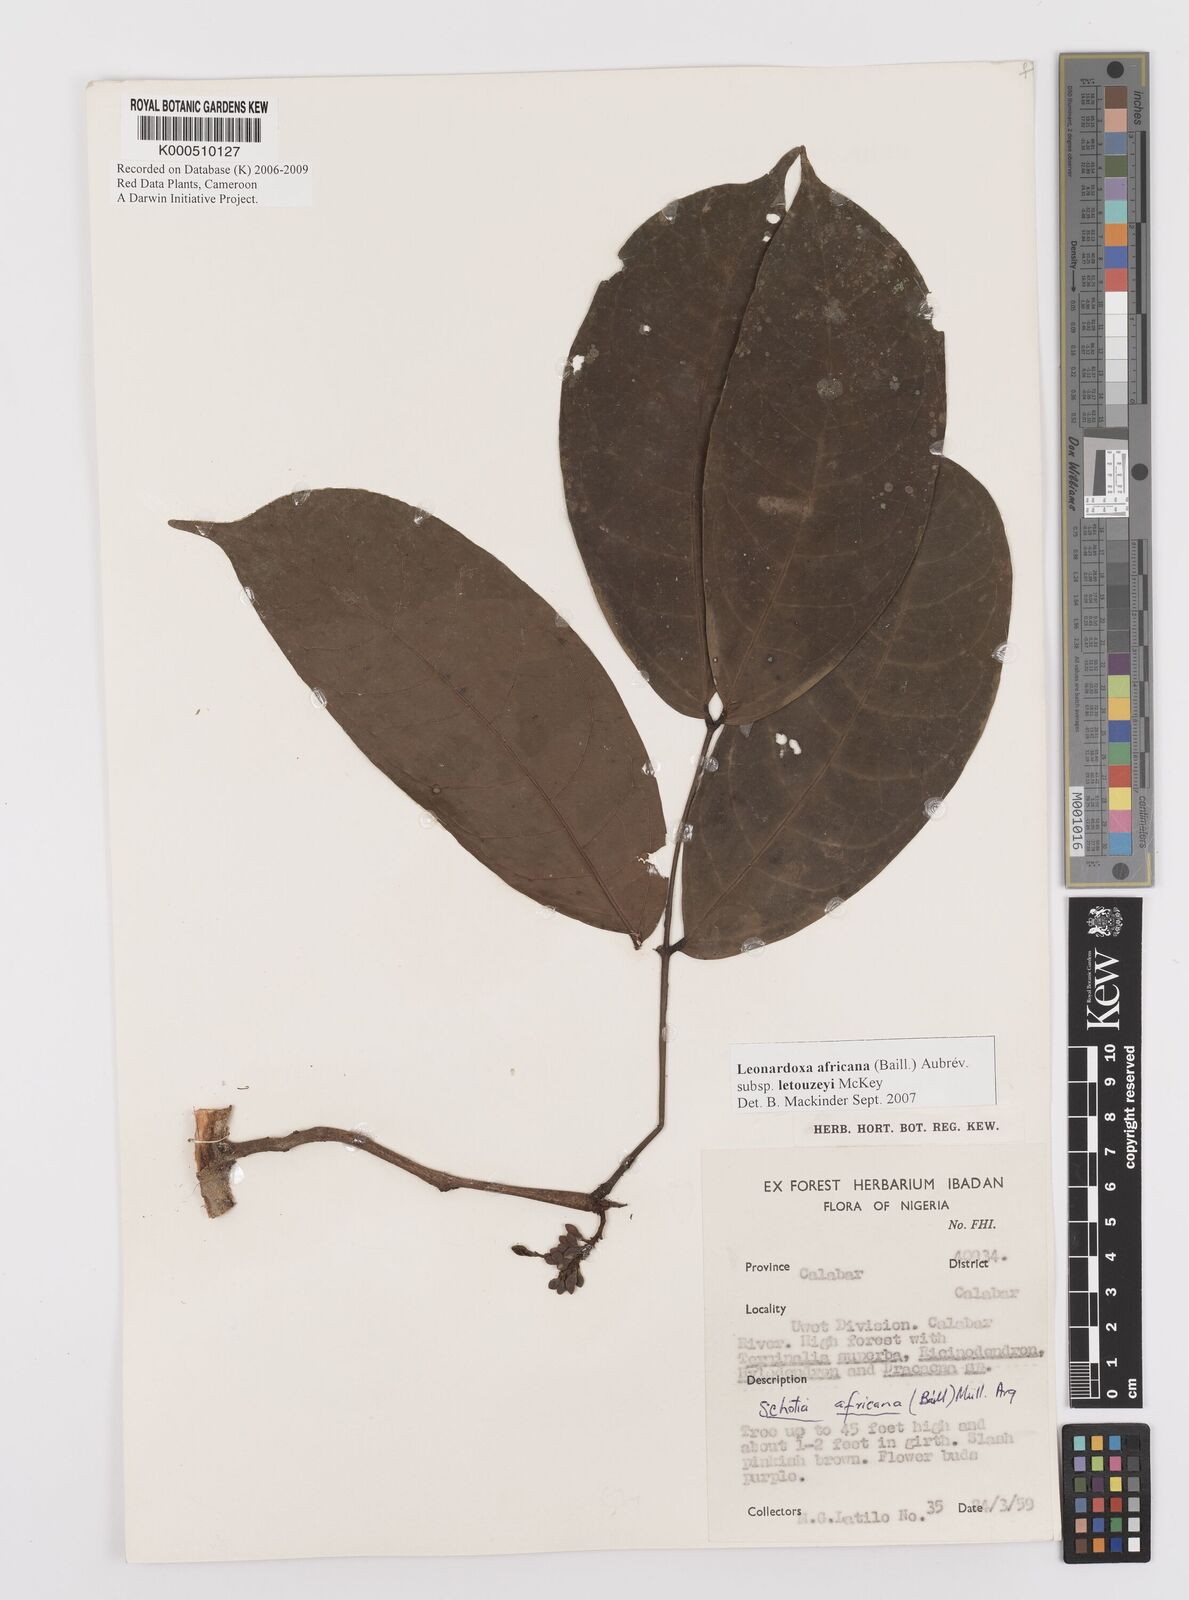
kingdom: Plantae
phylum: Tracheophyta
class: Magnoliopsida
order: Fabales
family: Fabaceae
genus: Leonardoxa
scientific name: Leonardoxa africana
